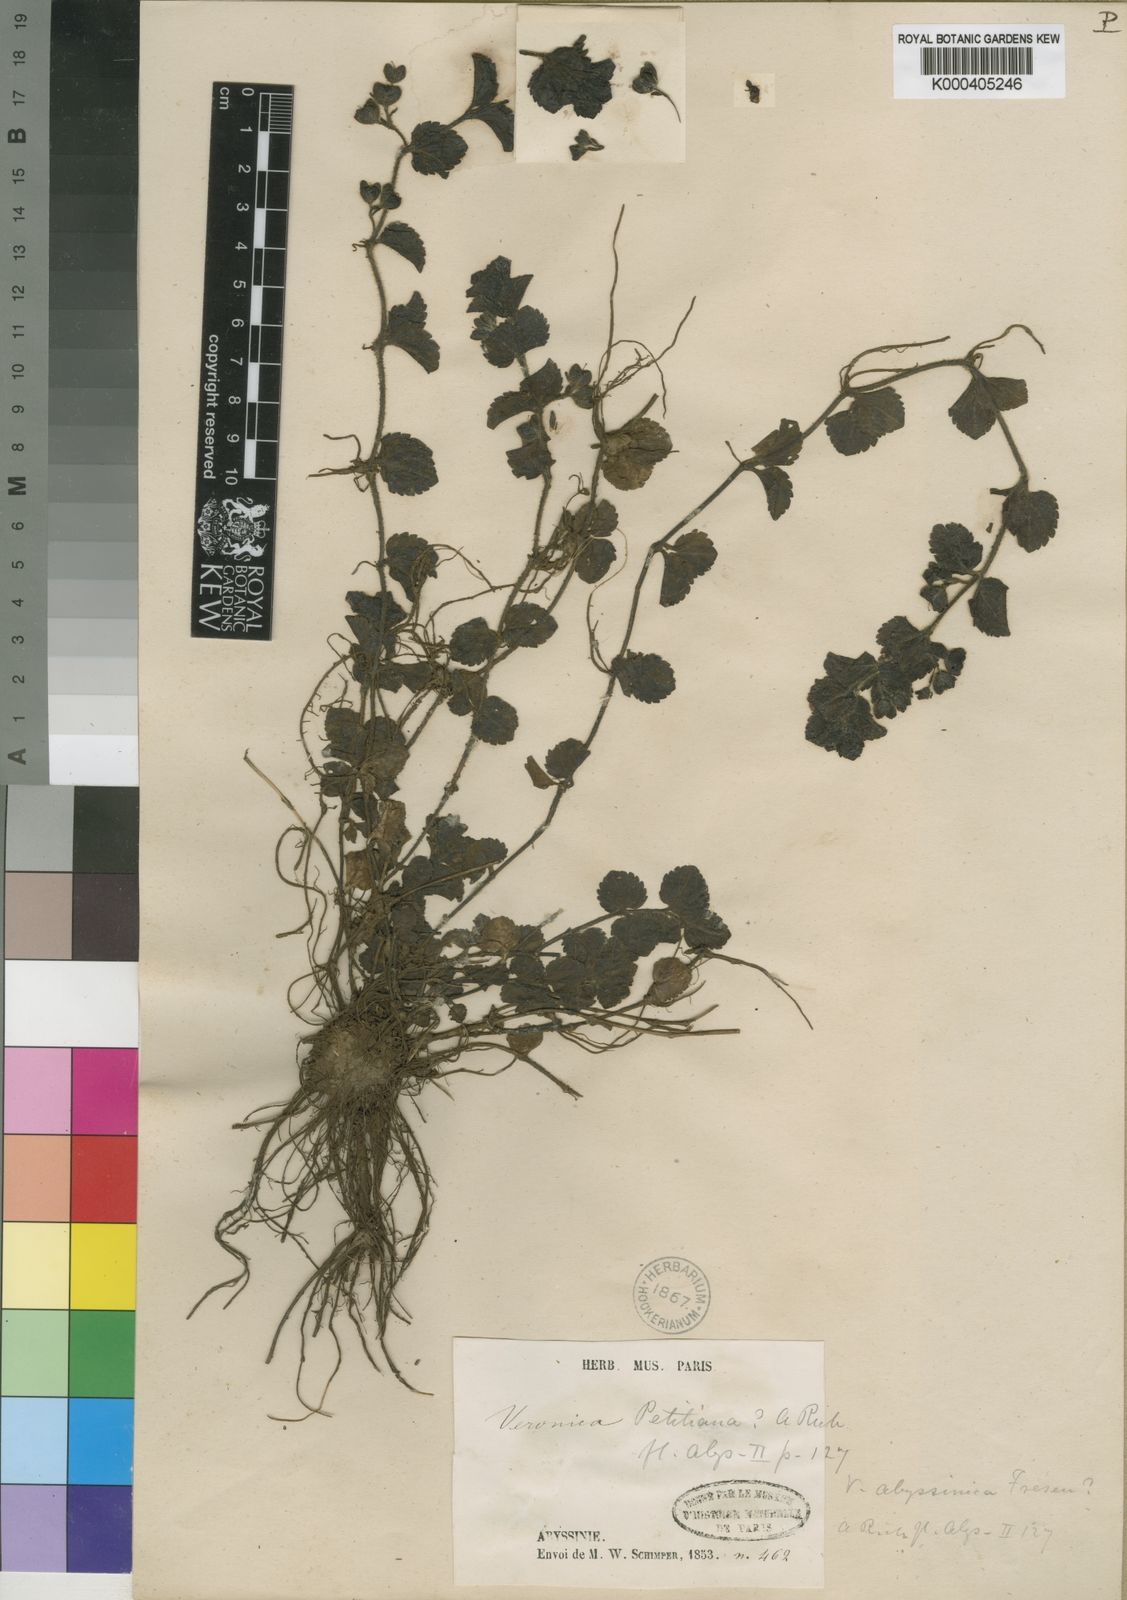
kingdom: Plantae
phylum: Tracheophyta
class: Magnoliopsida
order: Lamiales
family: Plantaginaceae
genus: Veronica
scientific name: Veronica abyssinica
